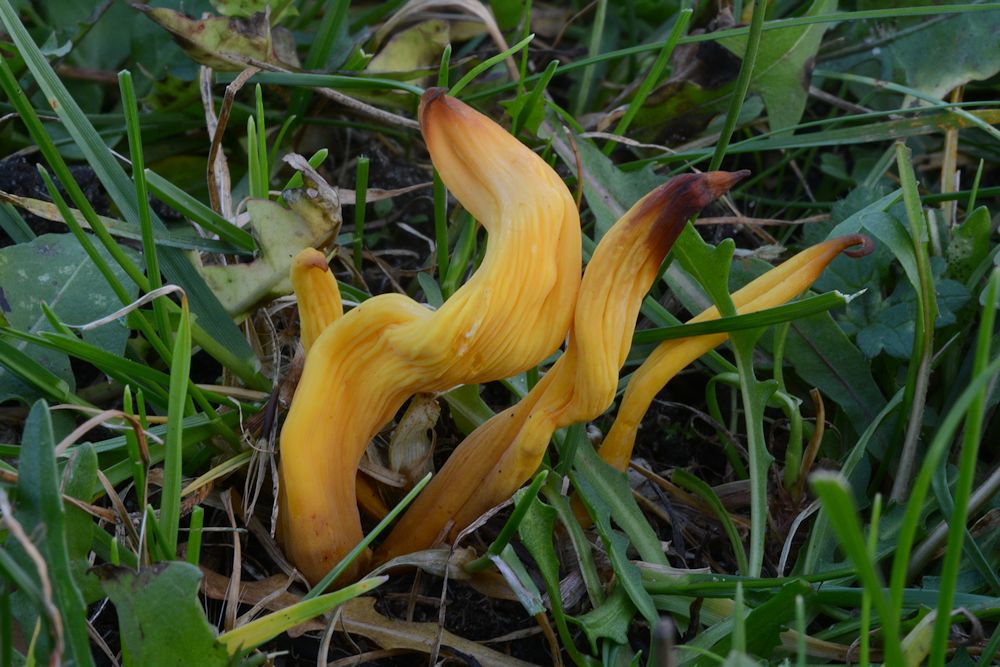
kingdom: Fungi
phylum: Basidiomycota
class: Agaricomycetes
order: Agaricales
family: Clavariaceae
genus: Clavulinopsis
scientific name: Clavulinopsis laeticolor
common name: flamme-køllesvamp
